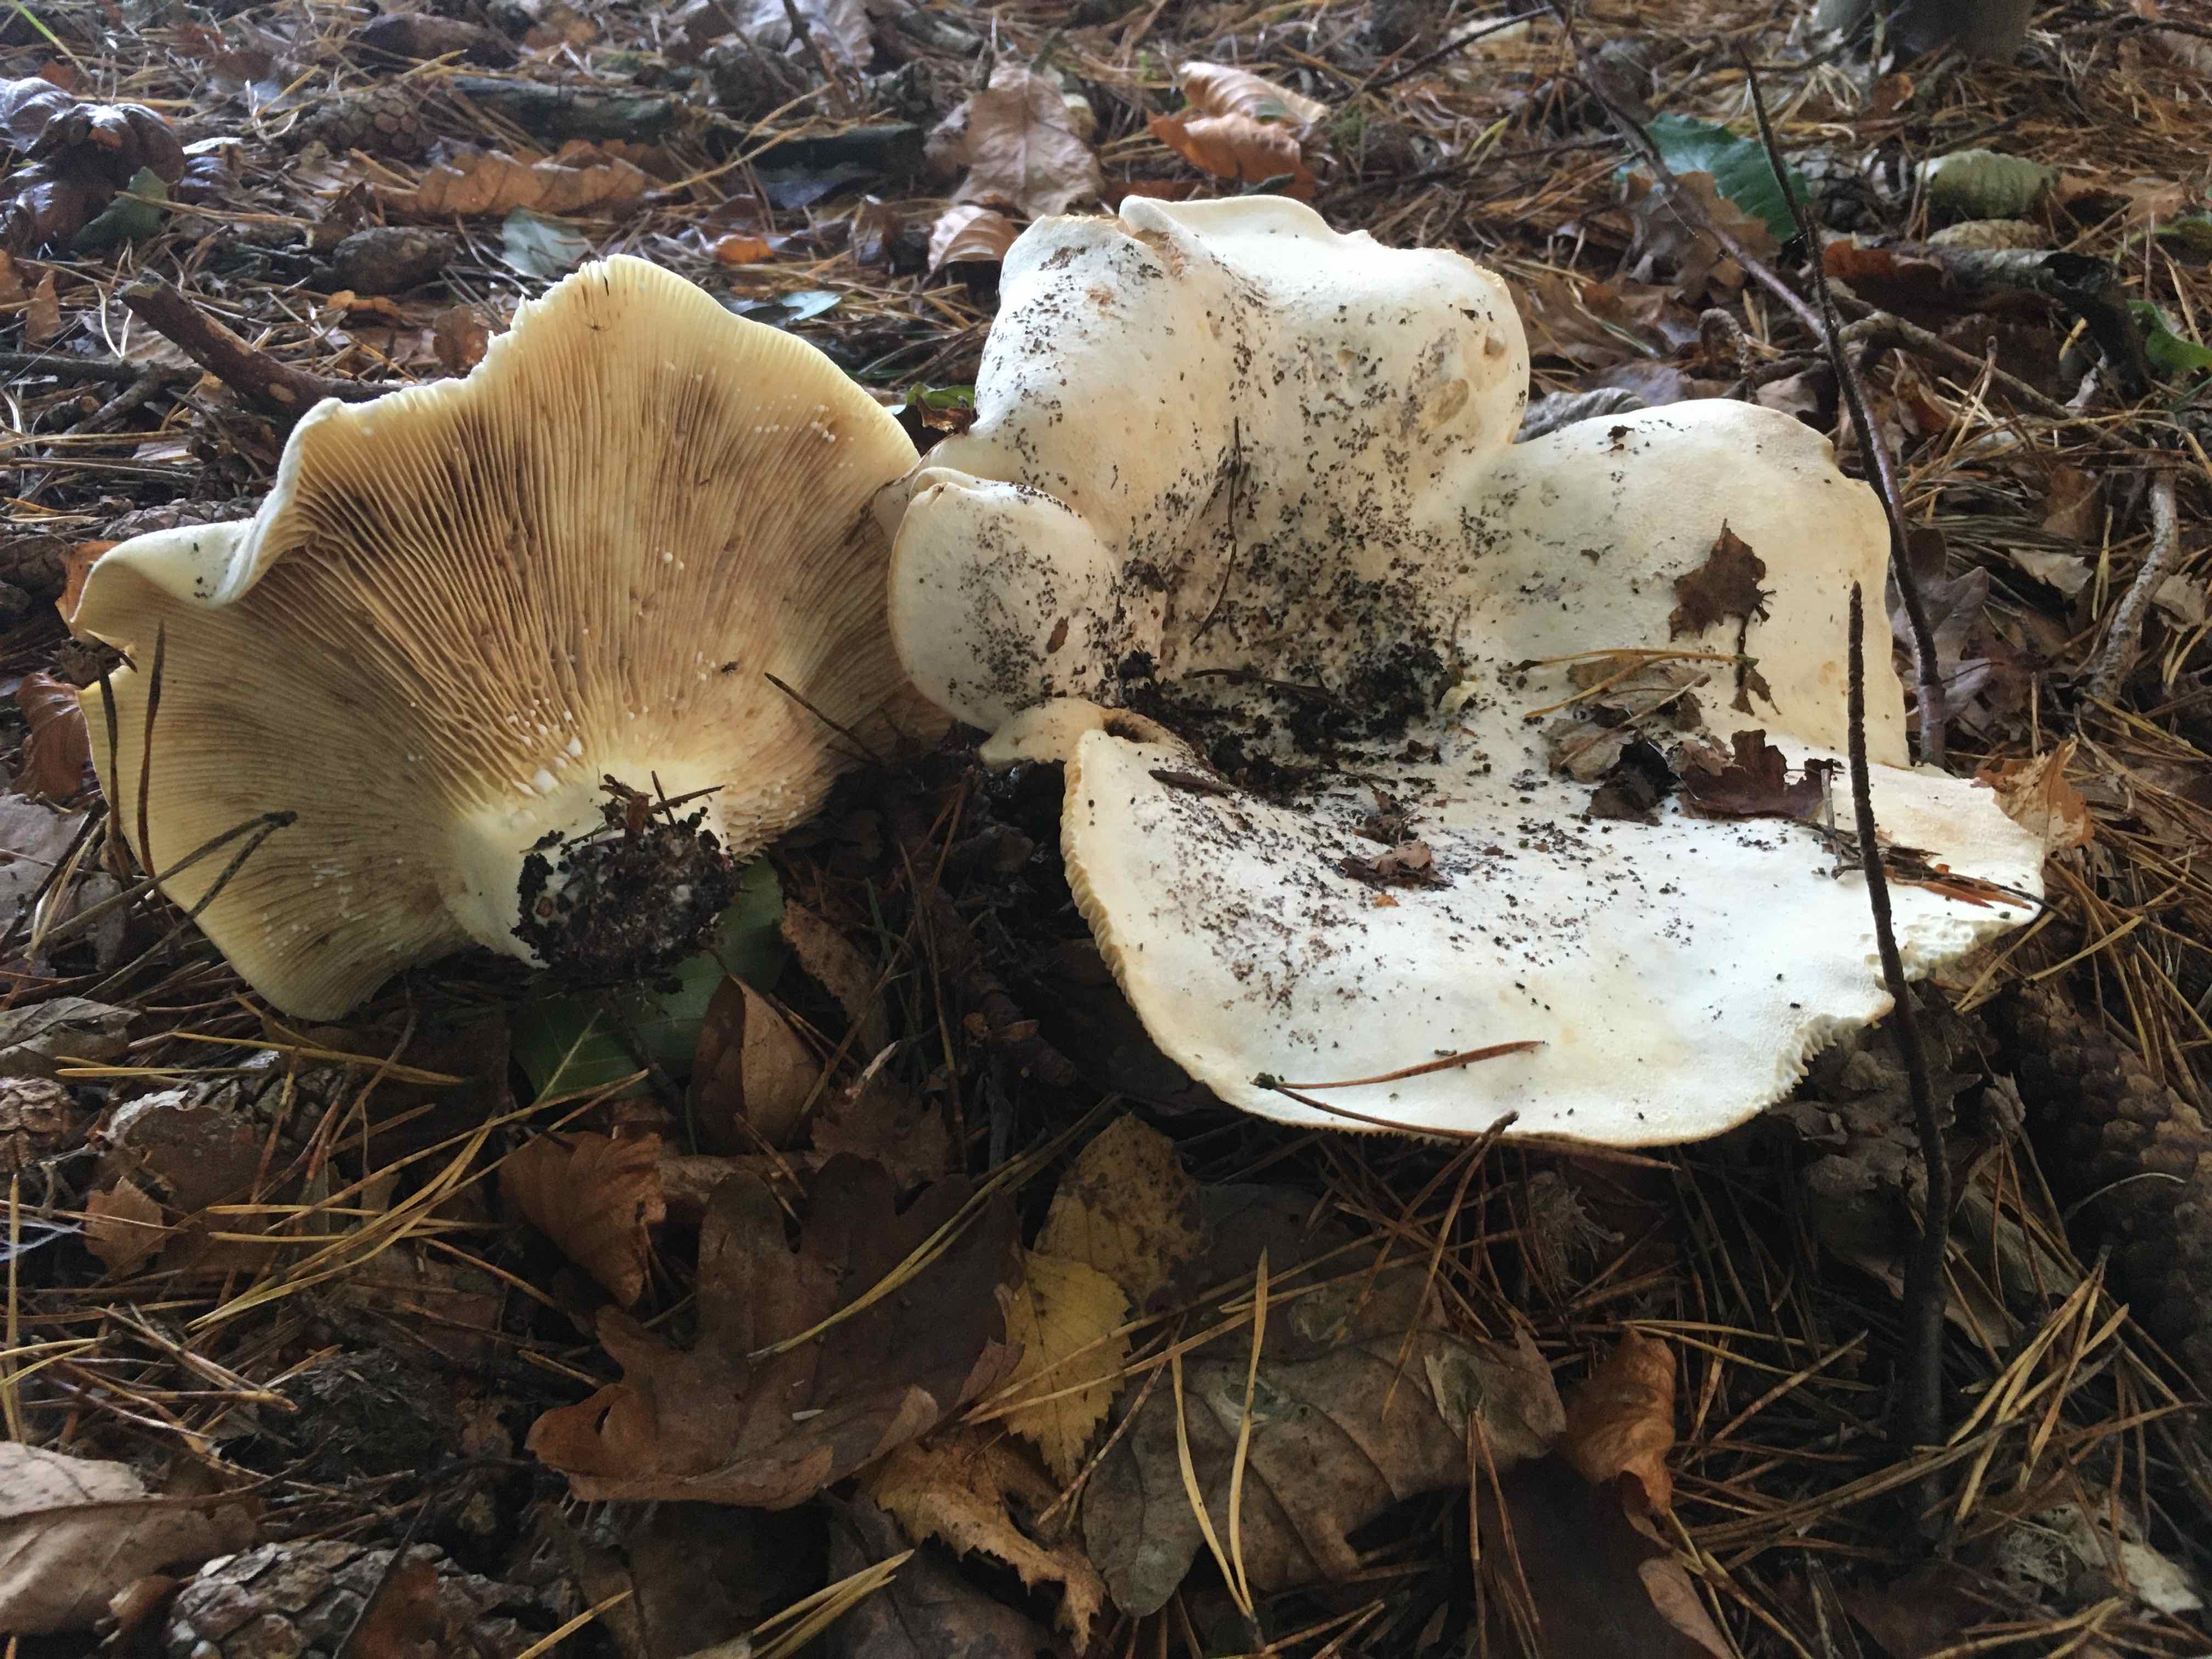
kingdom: Fungi
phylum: Basidiomycota
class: Agaricomycetes
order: Russulales
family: Russulaceae
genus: Lactifluus
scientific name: Lactifluus vellereus
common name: hvidfiltet mælkehat
